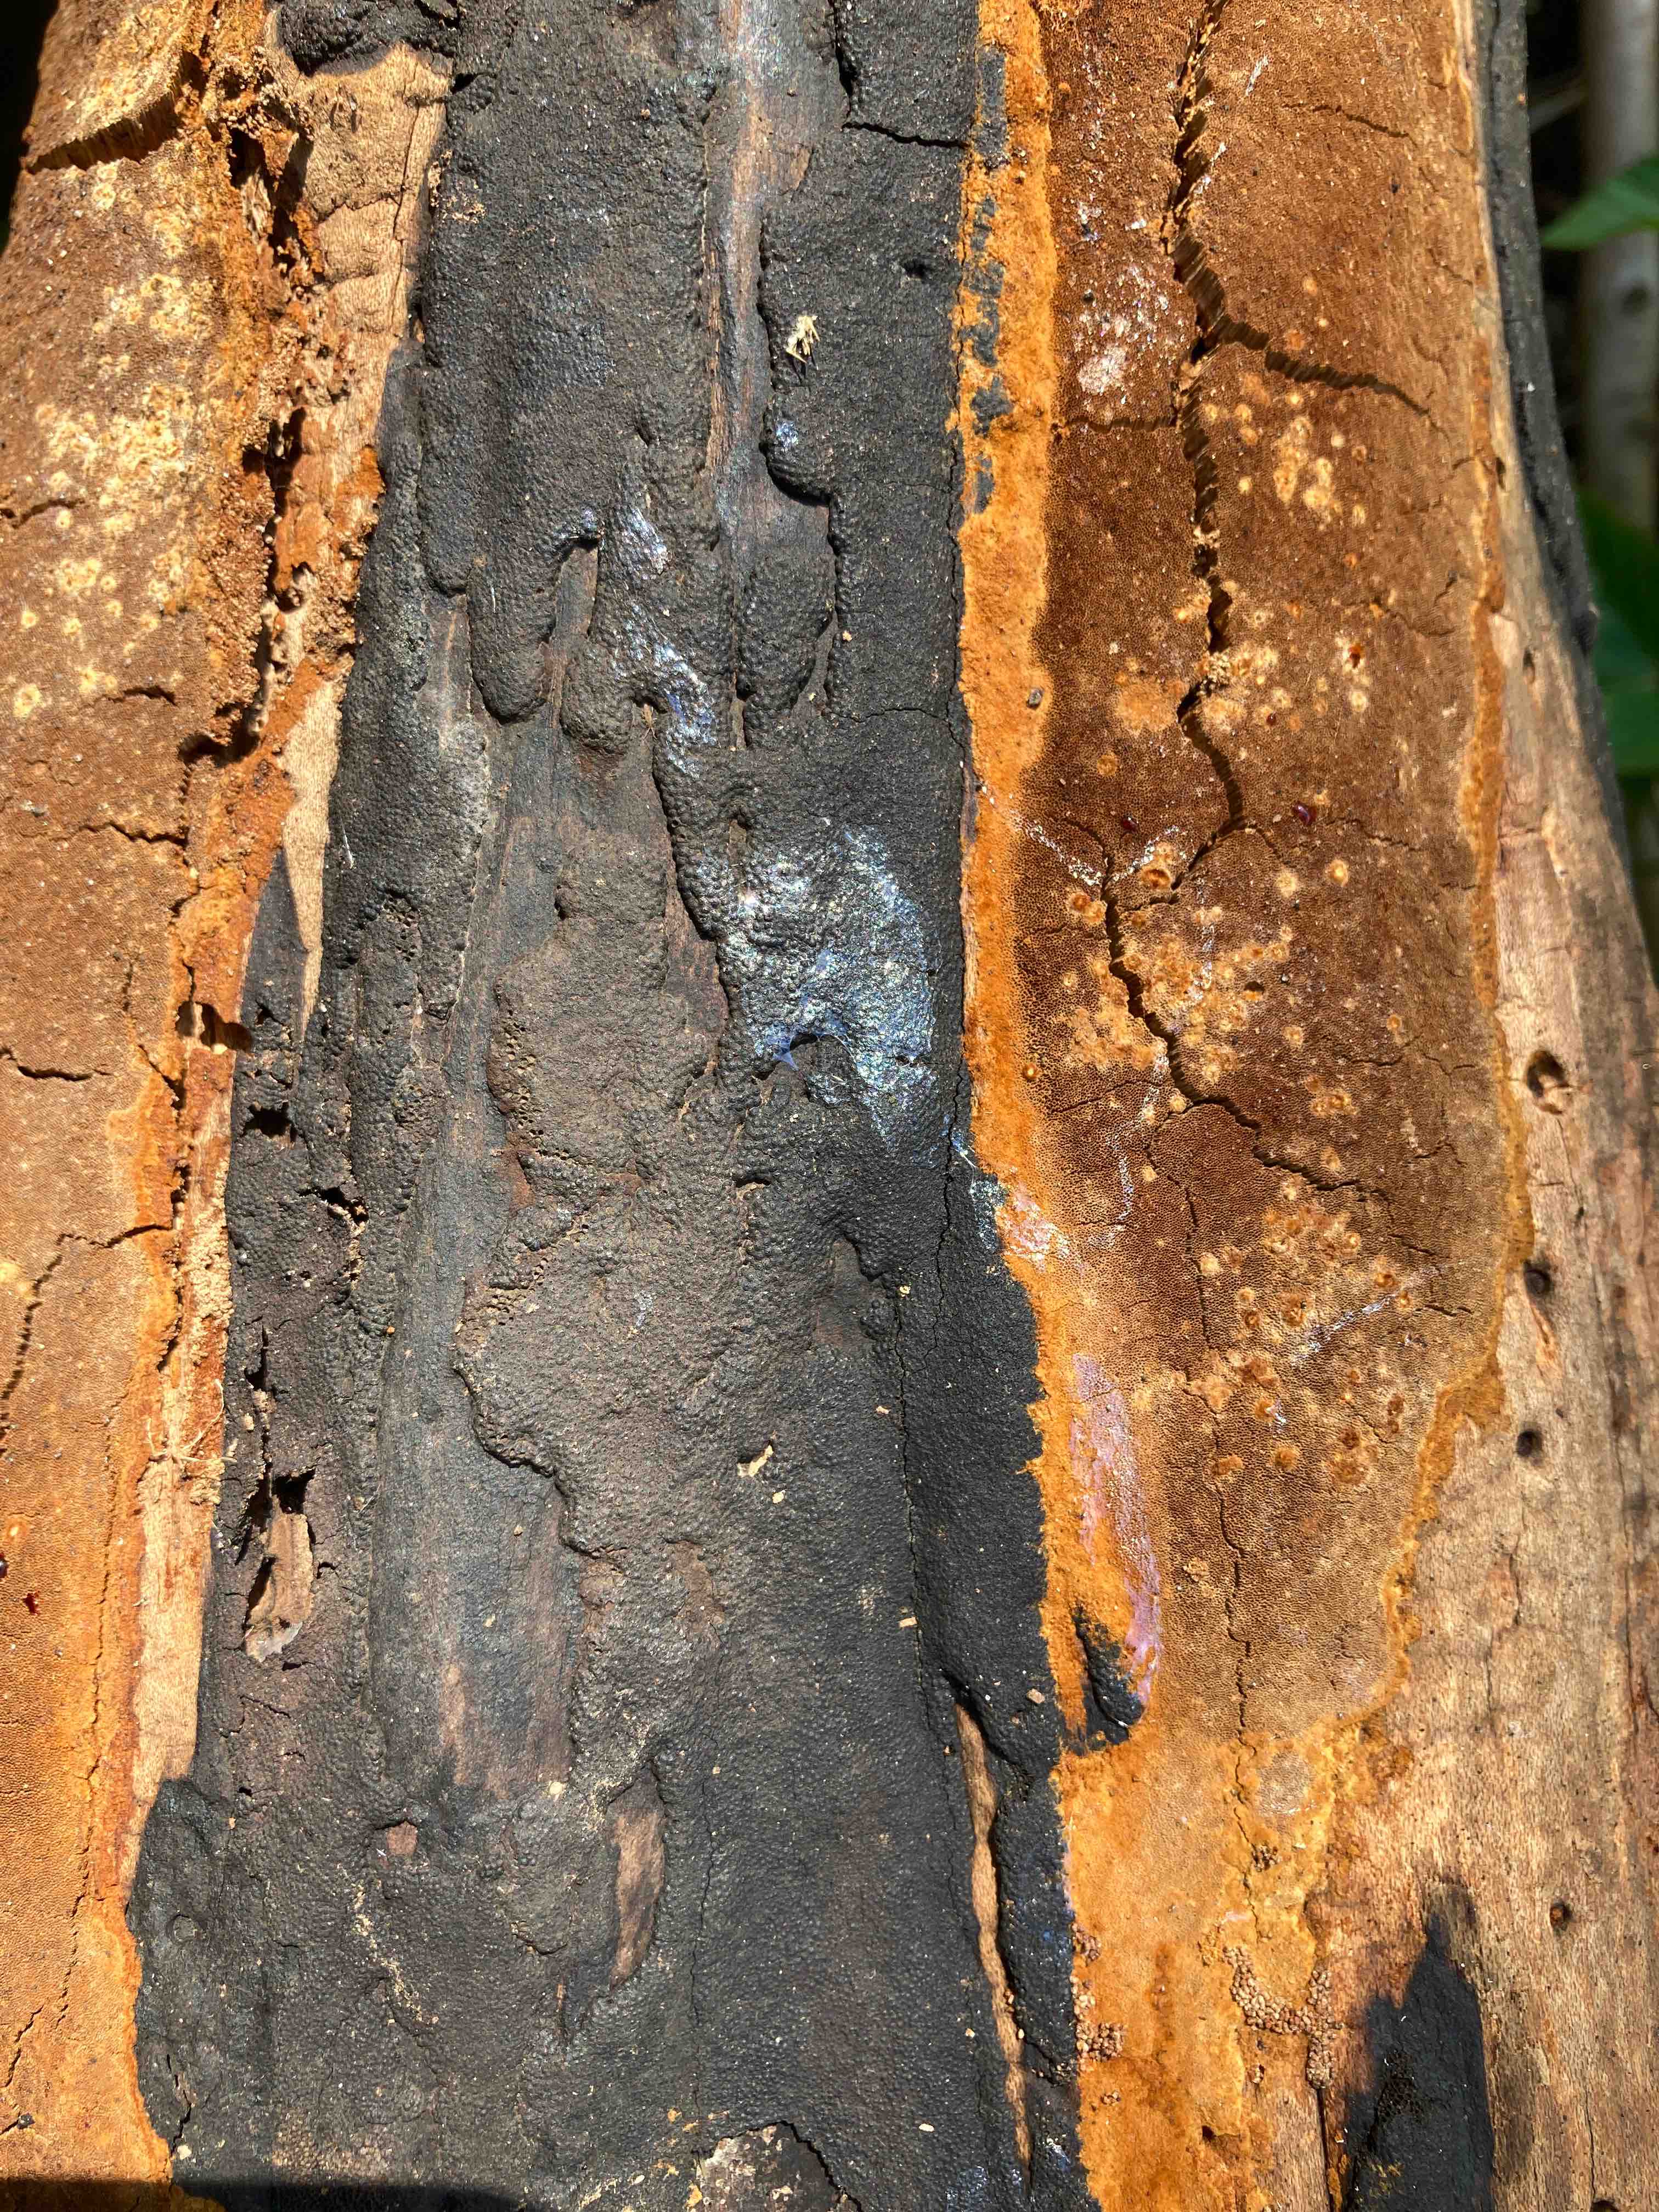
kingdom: Fungi
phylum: Ascomycota
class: Sordariomycetes
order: Xylariales
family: Hypoxylaceae
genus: Hypoxylon
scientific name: Hypoxylon macrocarpum
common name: skorpe-kulbær
